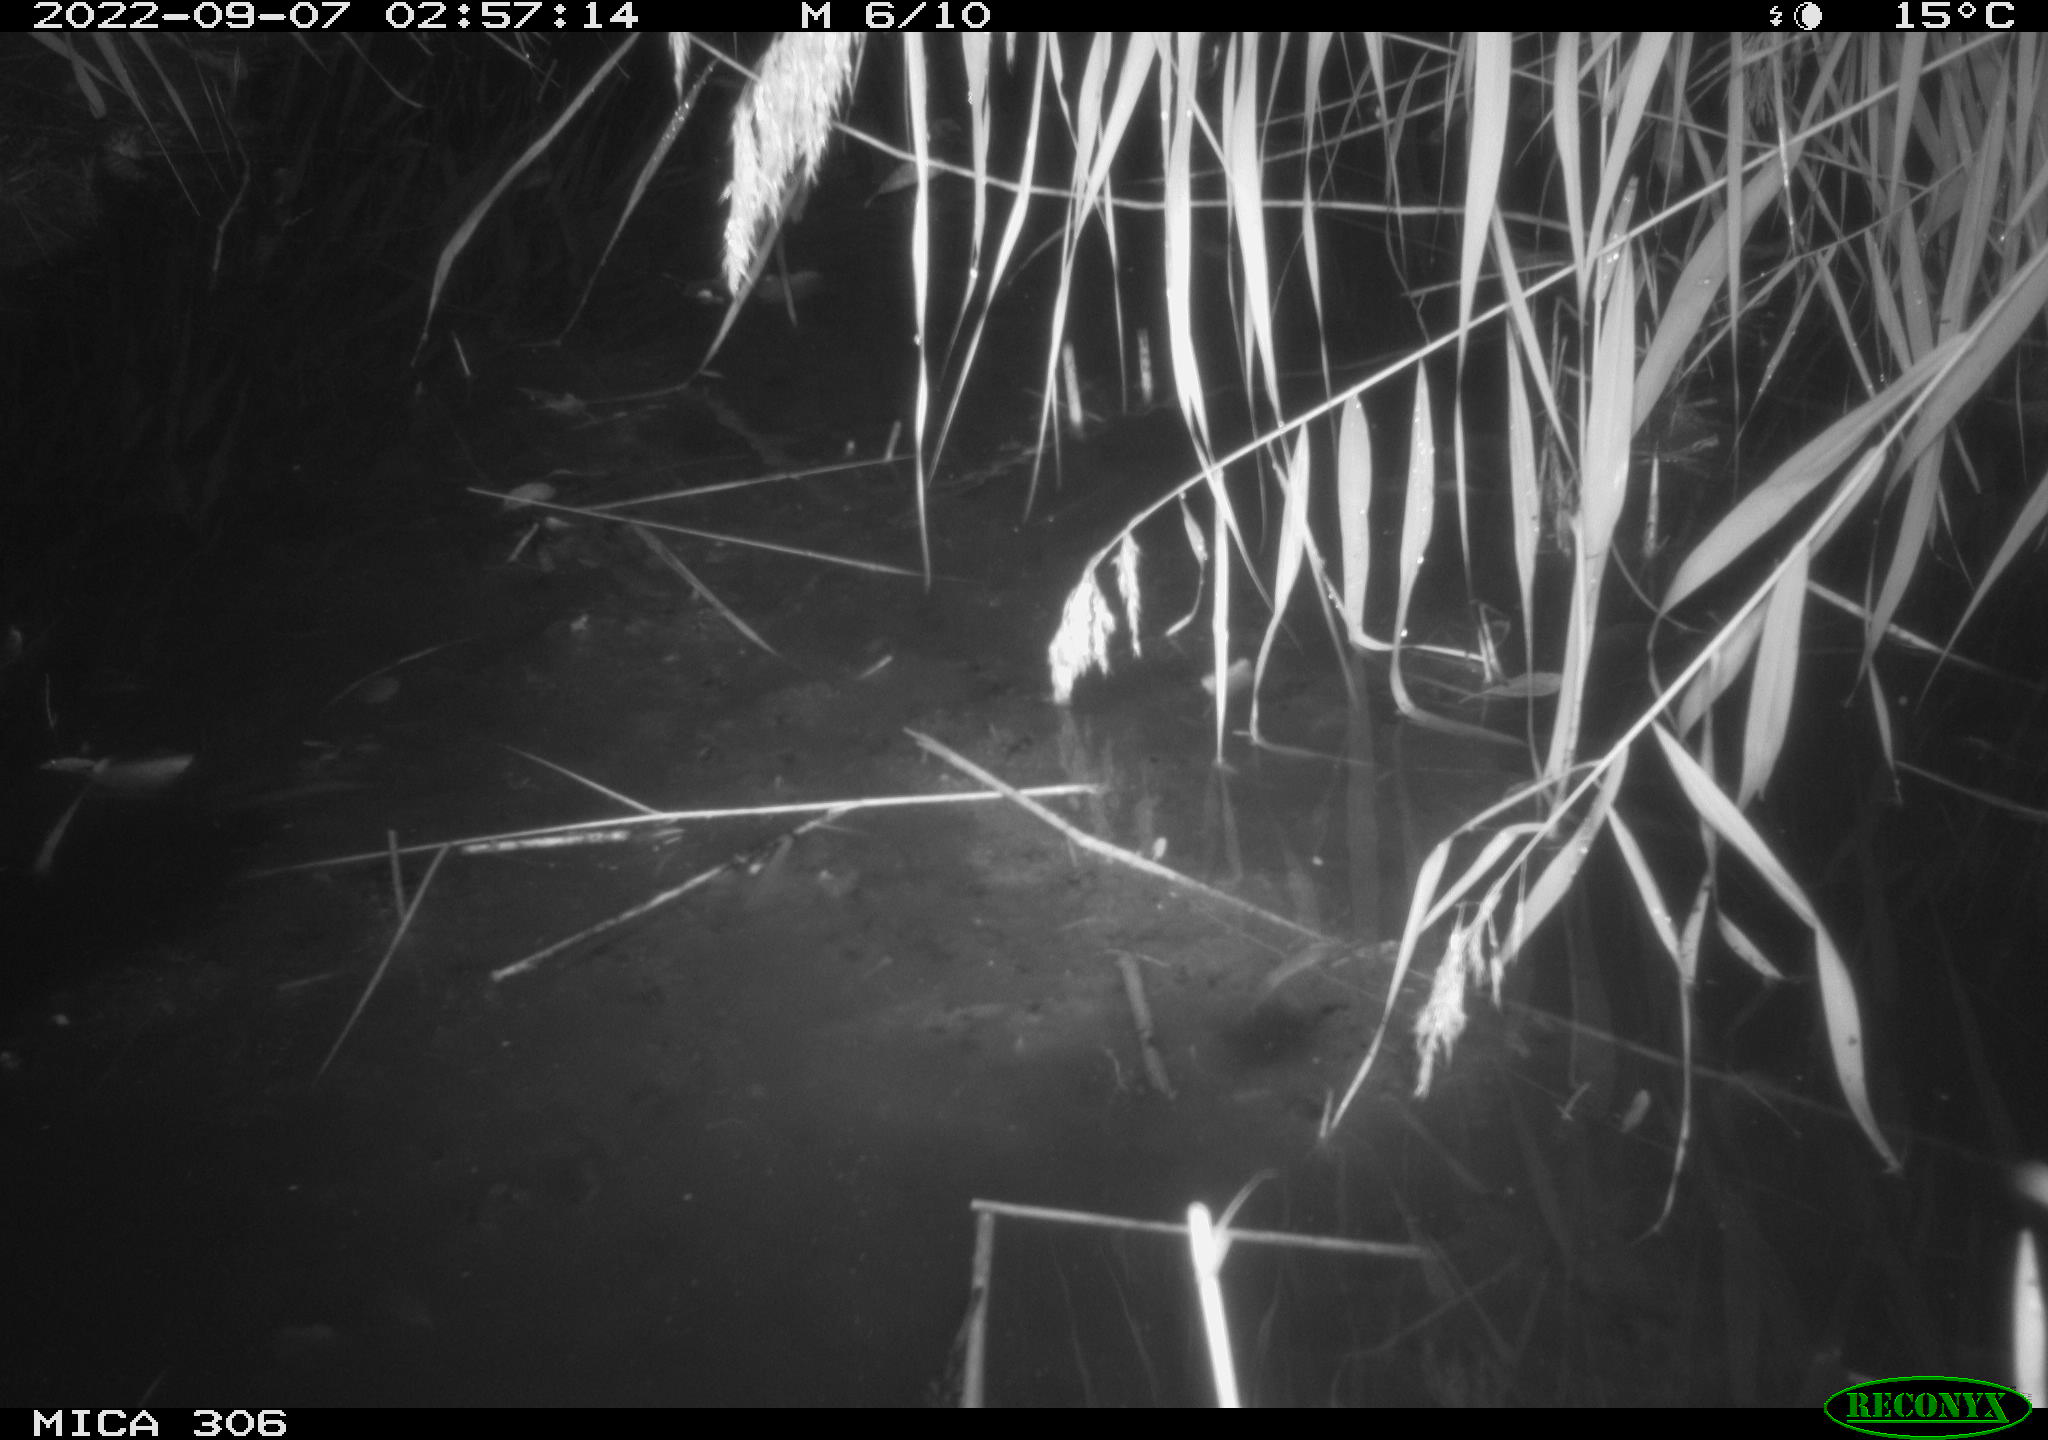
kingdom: Animalia
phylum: Chordata
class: Mammalia
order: Rodentia
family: Muridae
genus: Rattus
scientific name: Rattus norvegicus
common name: Brown rat
